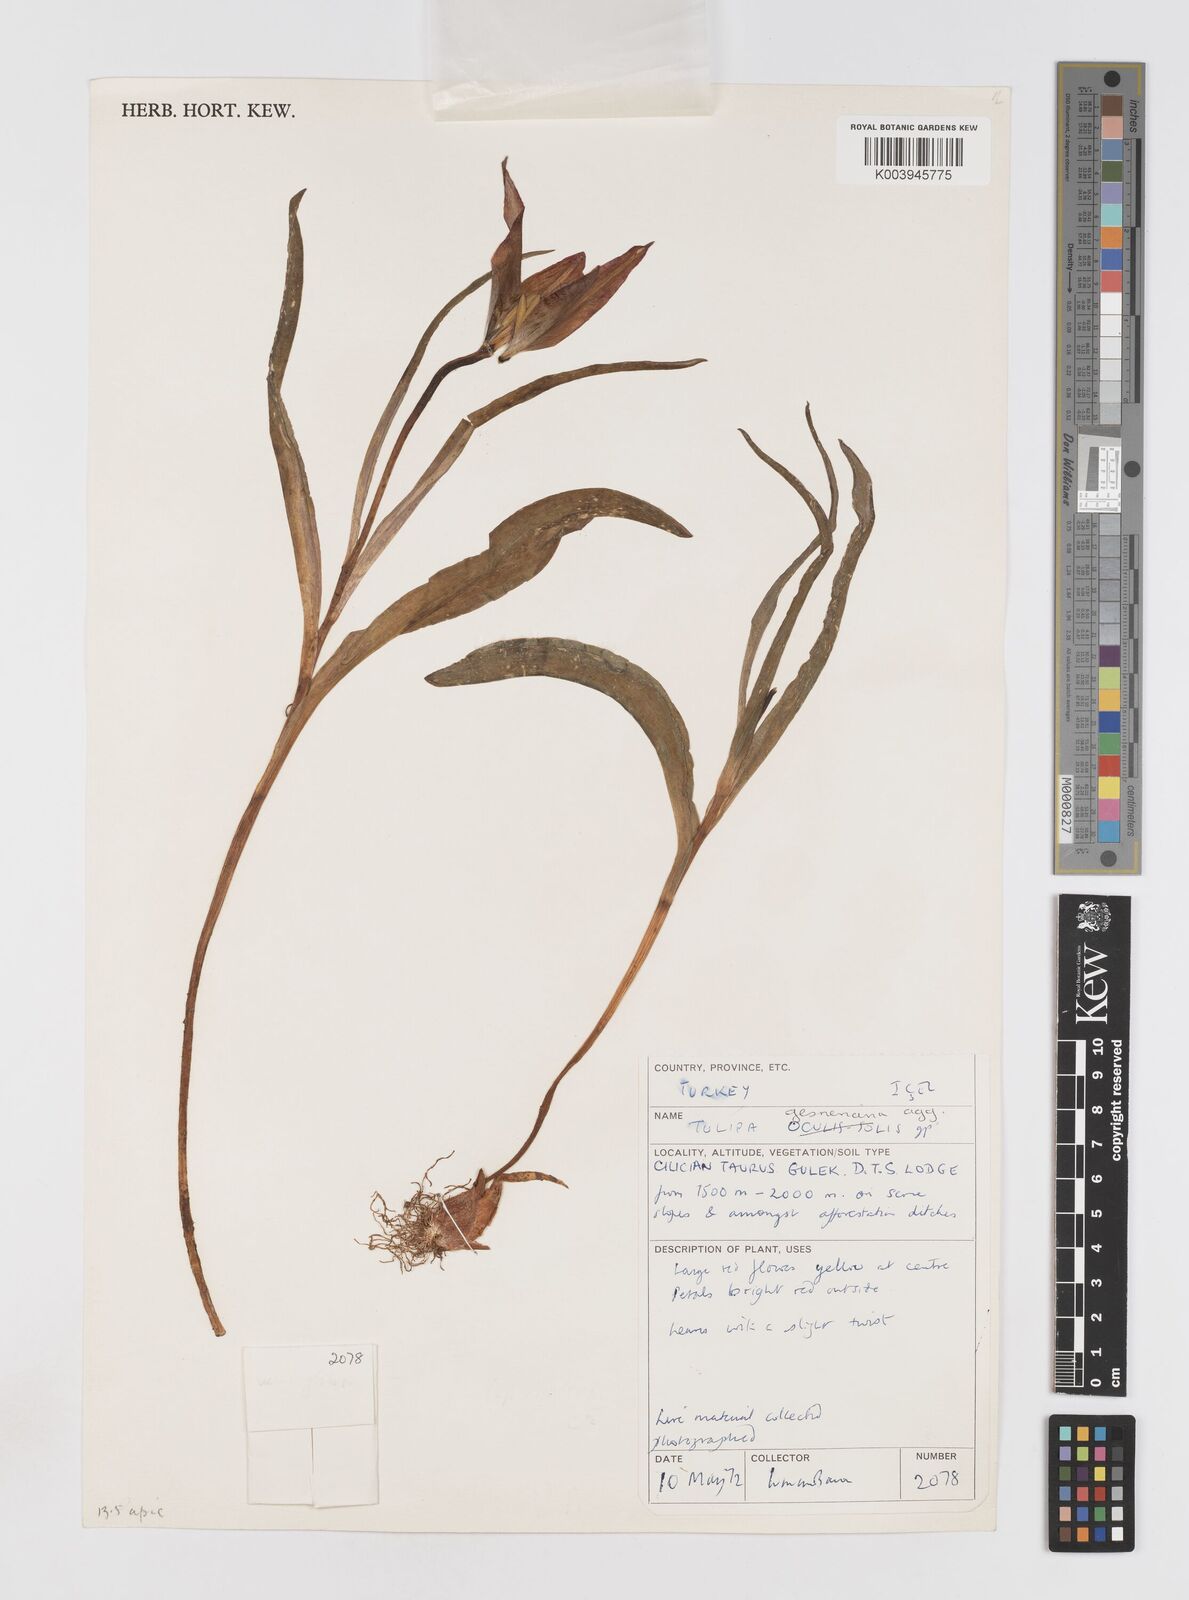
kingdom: Plantae
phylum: Tracheophyta
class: Liliopsida
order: Liliales
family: Liliaceae
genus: Tulipa
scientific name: Tulipa foliosa
